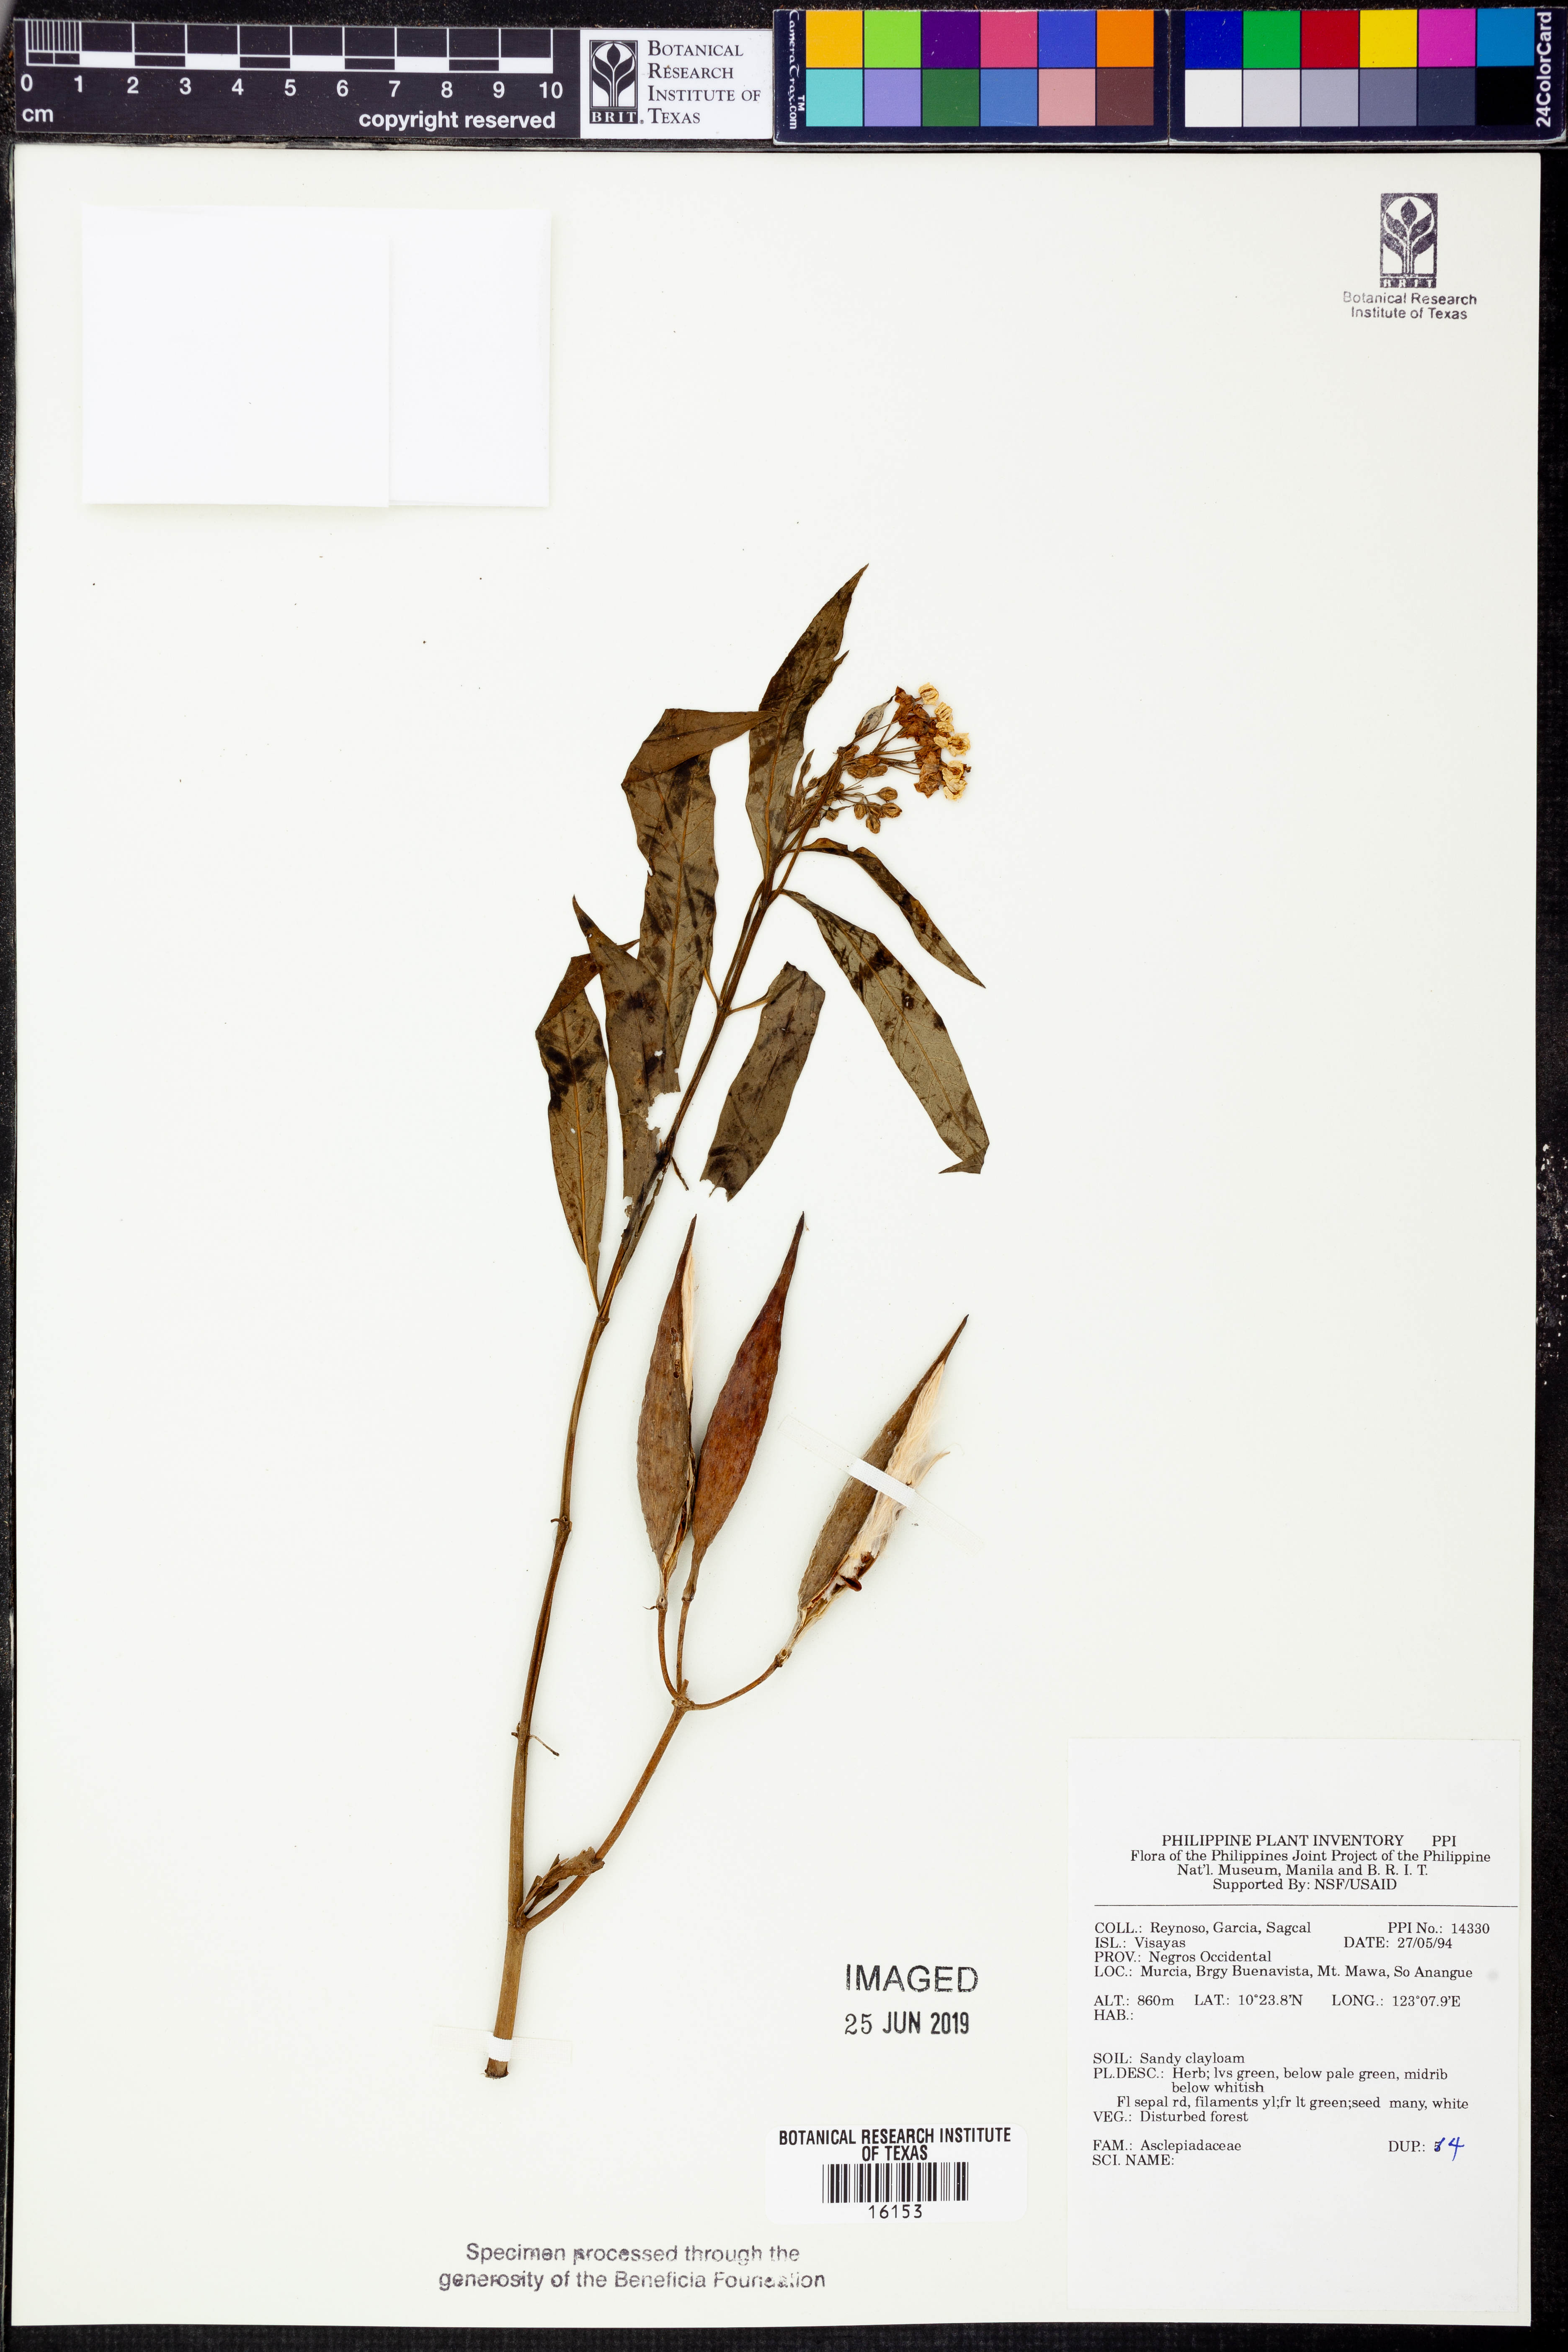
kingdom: Plantae
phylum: Tracheophyta
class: Magnoliopsida
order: Gentianales
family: Apocynaceae
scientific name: Apocynaceae
